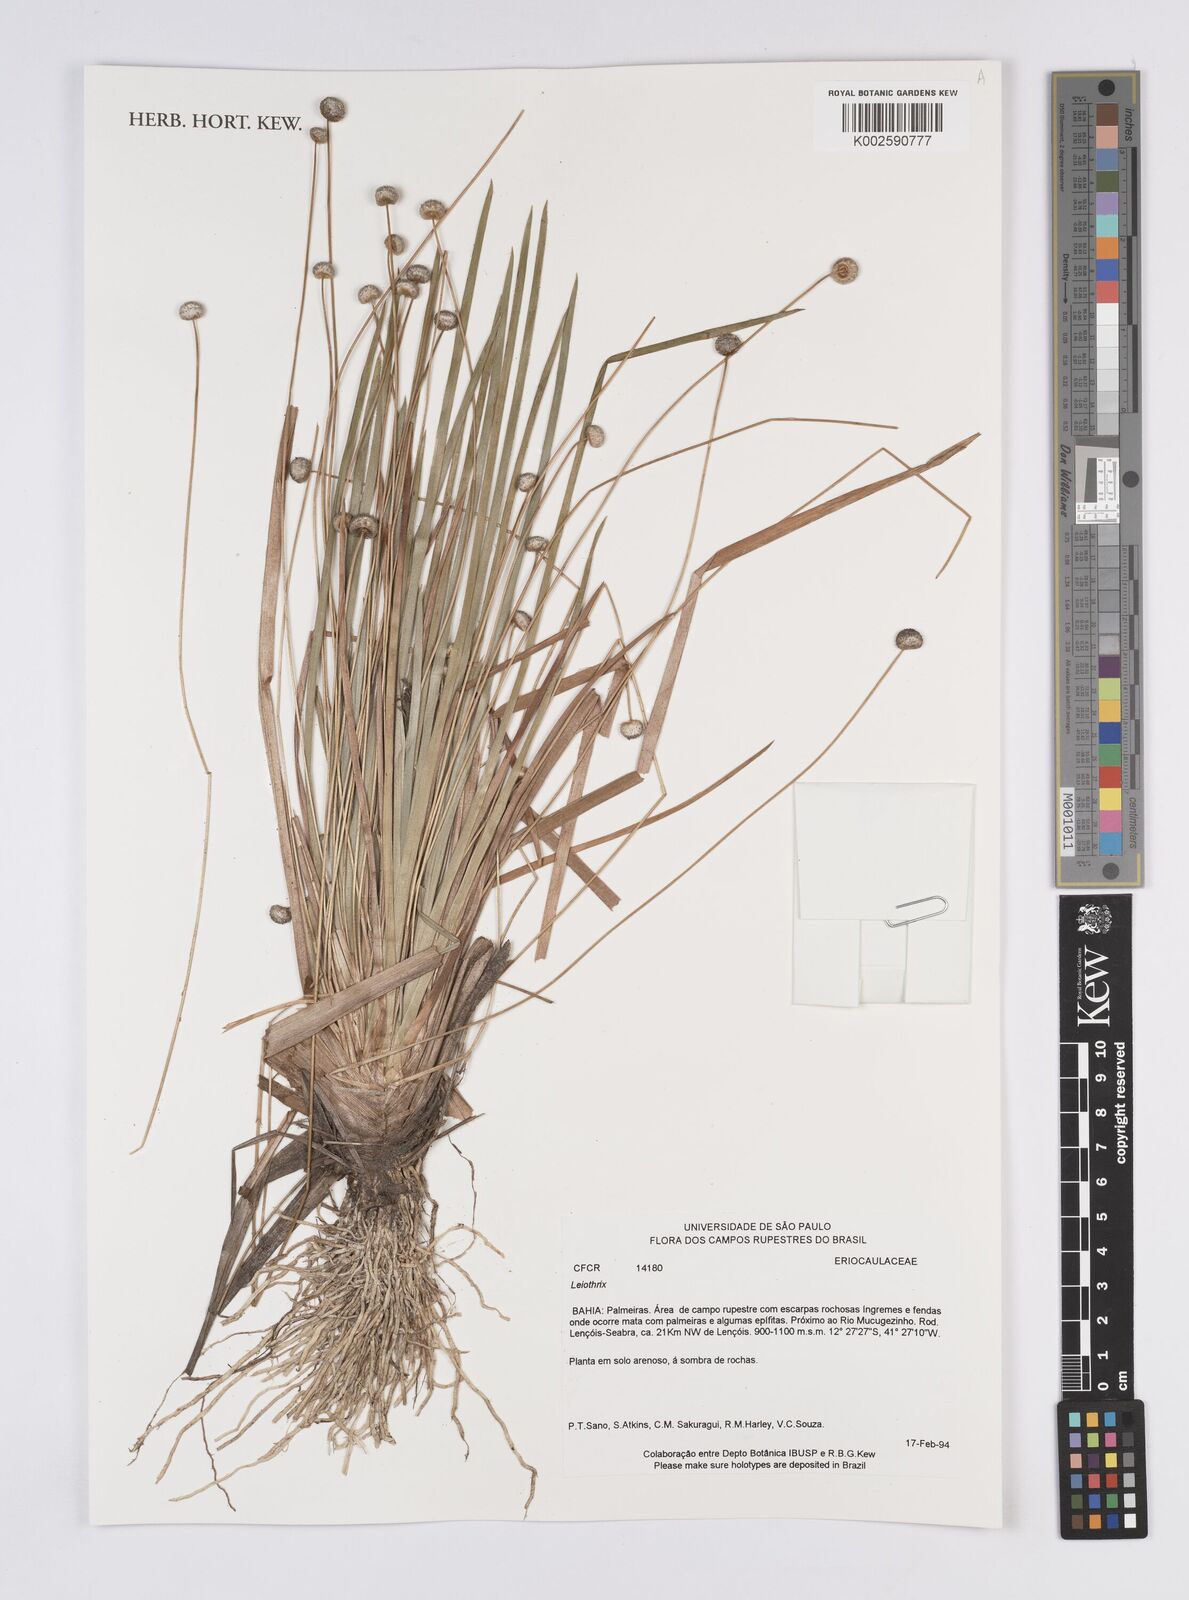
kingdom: Plantae
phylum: Tracheophyta
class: Liliopsida
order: Poales
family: Eriocaulaceae
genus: Leiothrix
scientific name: Leiothrix
